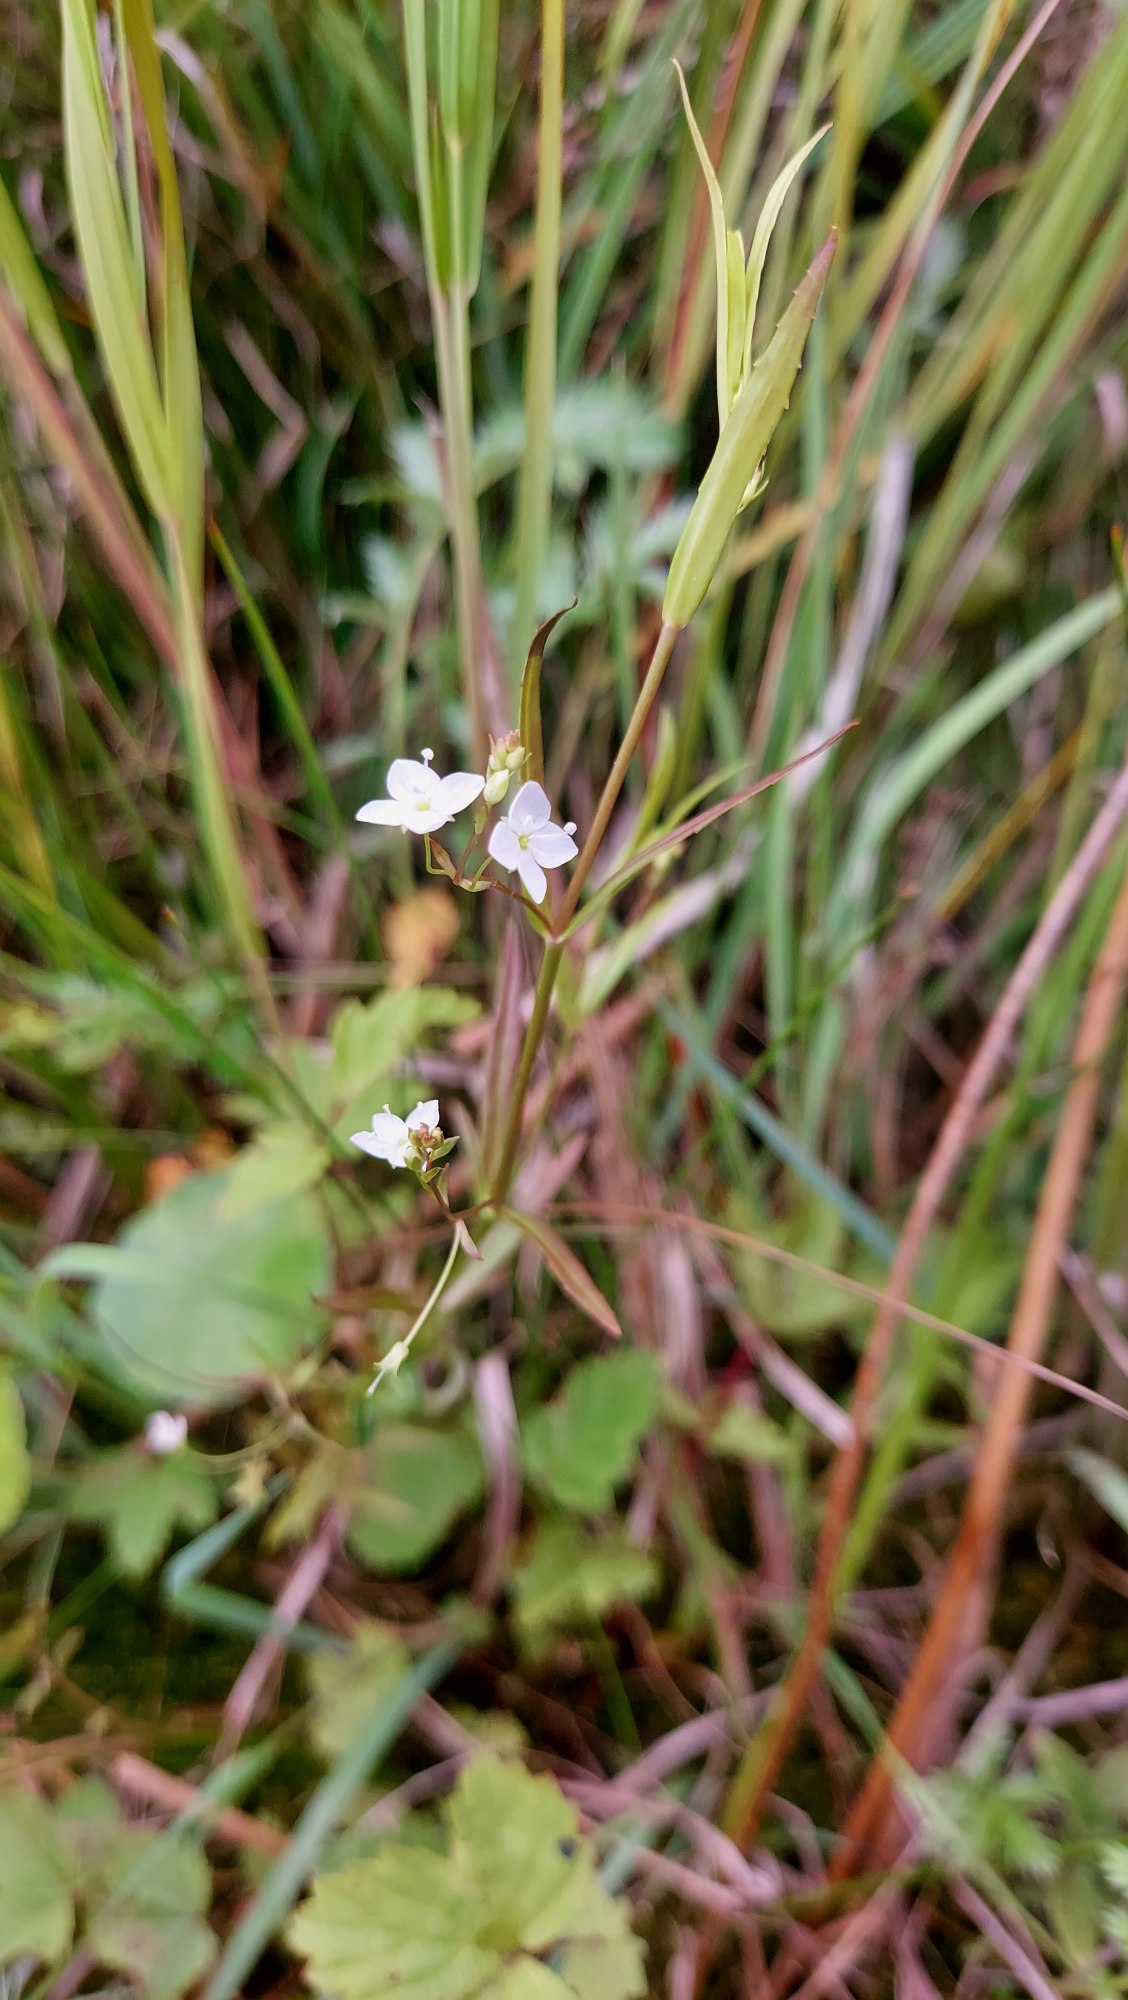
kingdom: Plantae
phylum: Tracheophyta
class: Magnoliopsida
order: Lamiales
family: Plantaginaceae
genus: Veronica
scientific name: Veronica scutellata
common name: Smalbladet ærenpris
